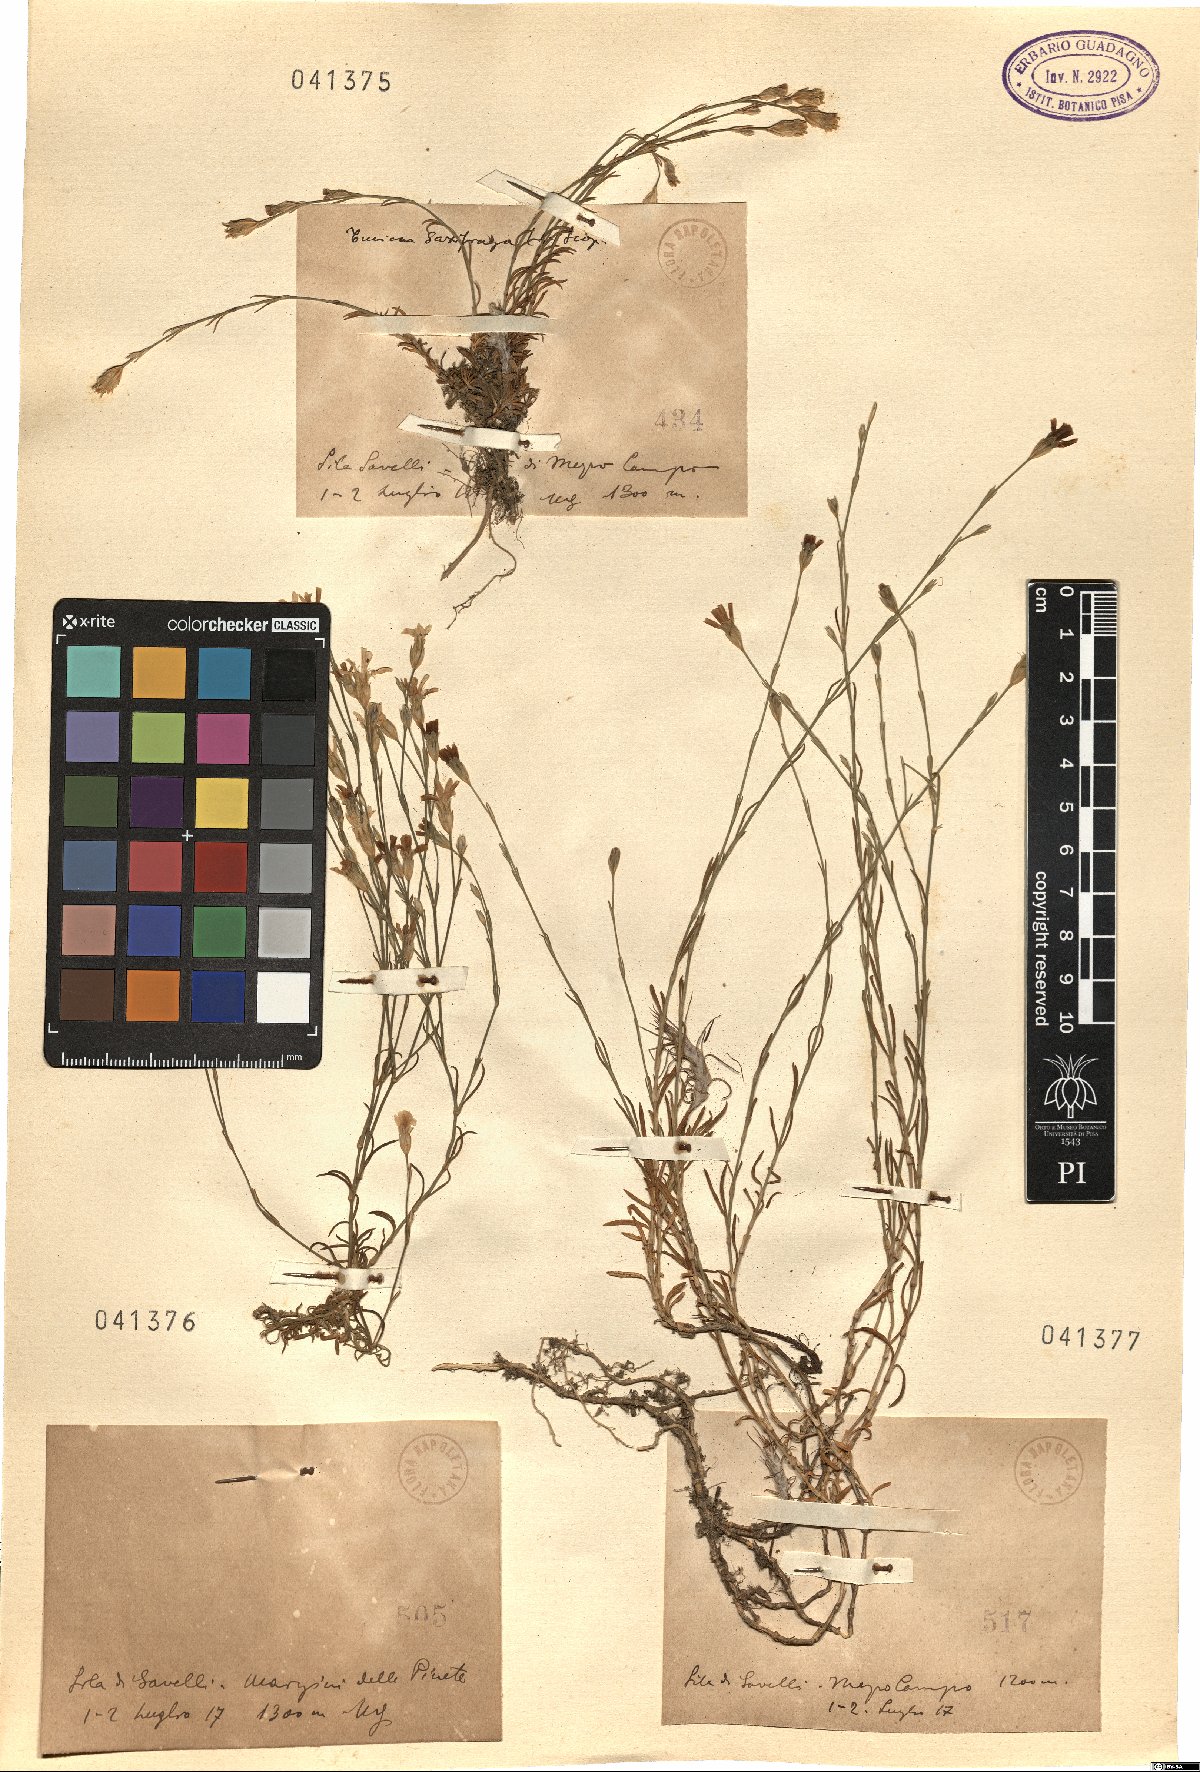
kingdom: Plantae
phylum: Tracheophyta
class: Magnoliopsida
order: Caryophyllales
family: Caryophyllaceae
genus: Petrorhagia
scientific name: Petrorhagia saxifraga
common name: Tunicflower
